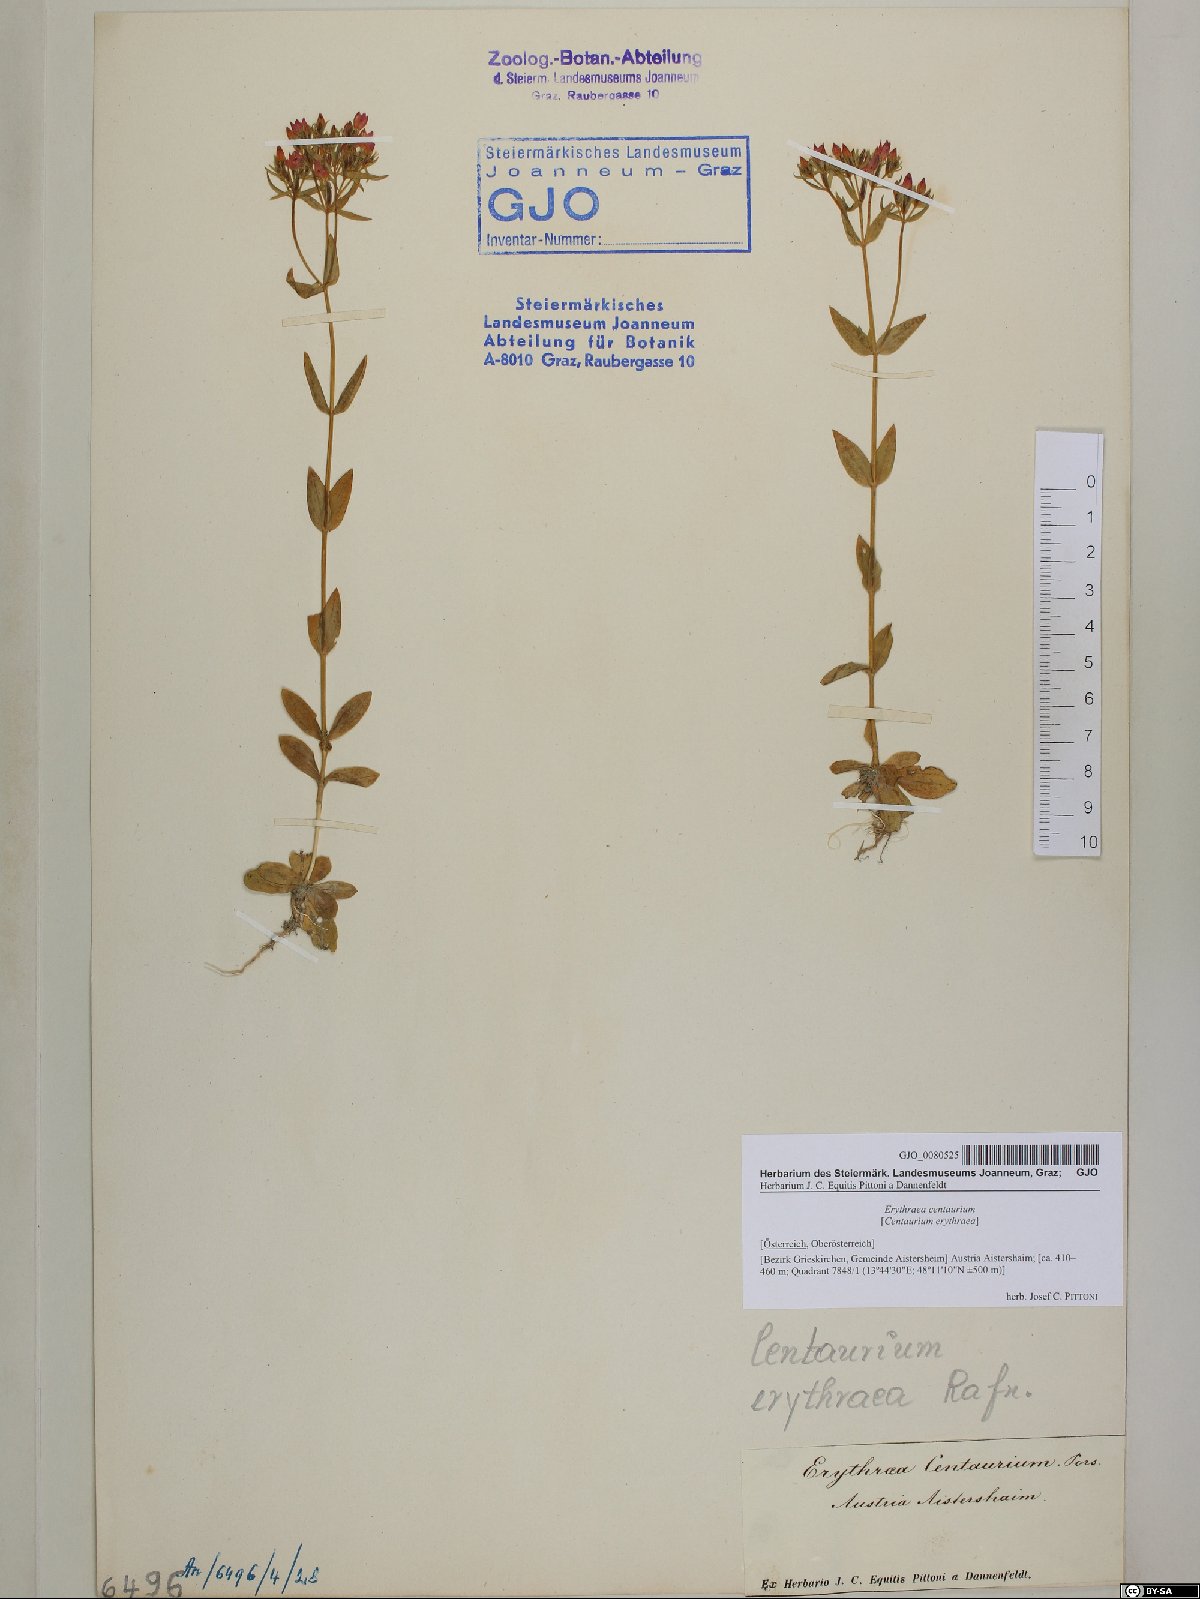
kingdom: Plantae
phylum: Tracheophyta
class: Magnoliopsida
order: Gentianales
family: Gentianaceae
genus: Centaurium
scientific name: Centaurium erythraea
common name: Common centaury
